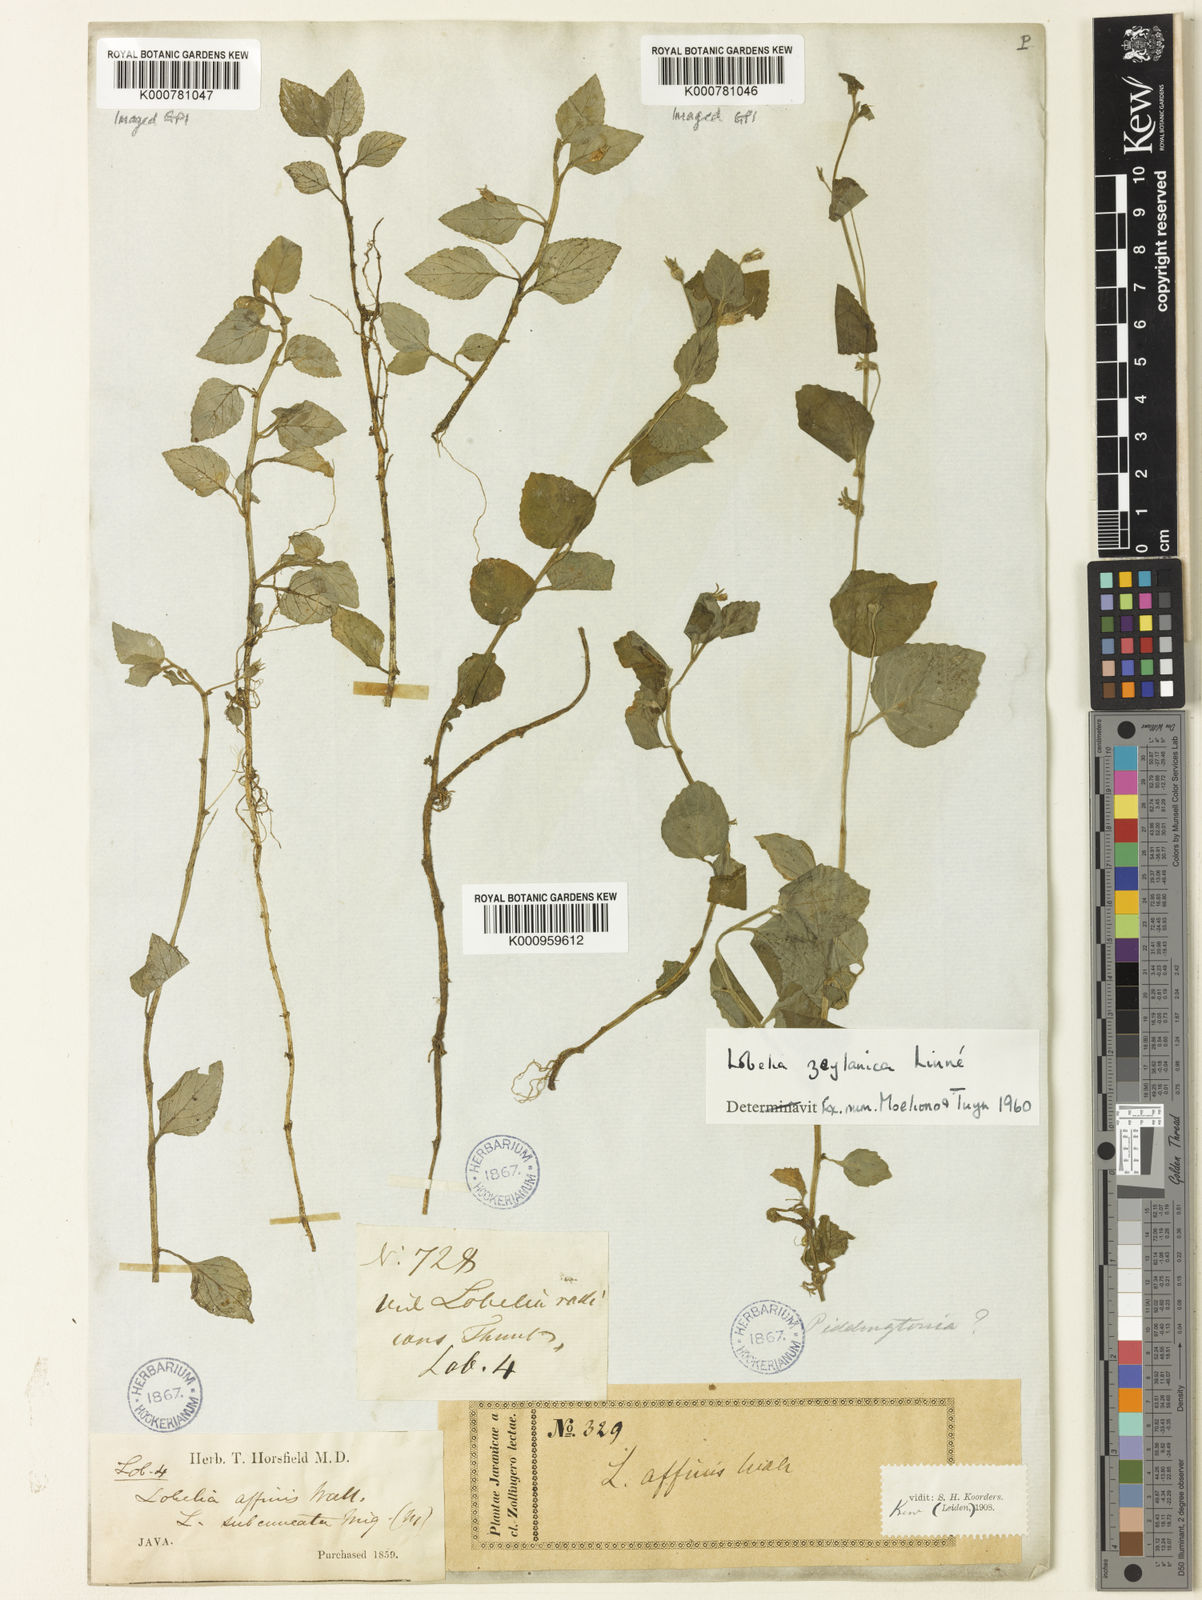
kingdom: Plantae
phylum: Tracheophyta
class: Magnoliopsida
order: Asterales
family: Campanulaceae
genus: Lobelia
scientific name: Lobelia zeylanica
